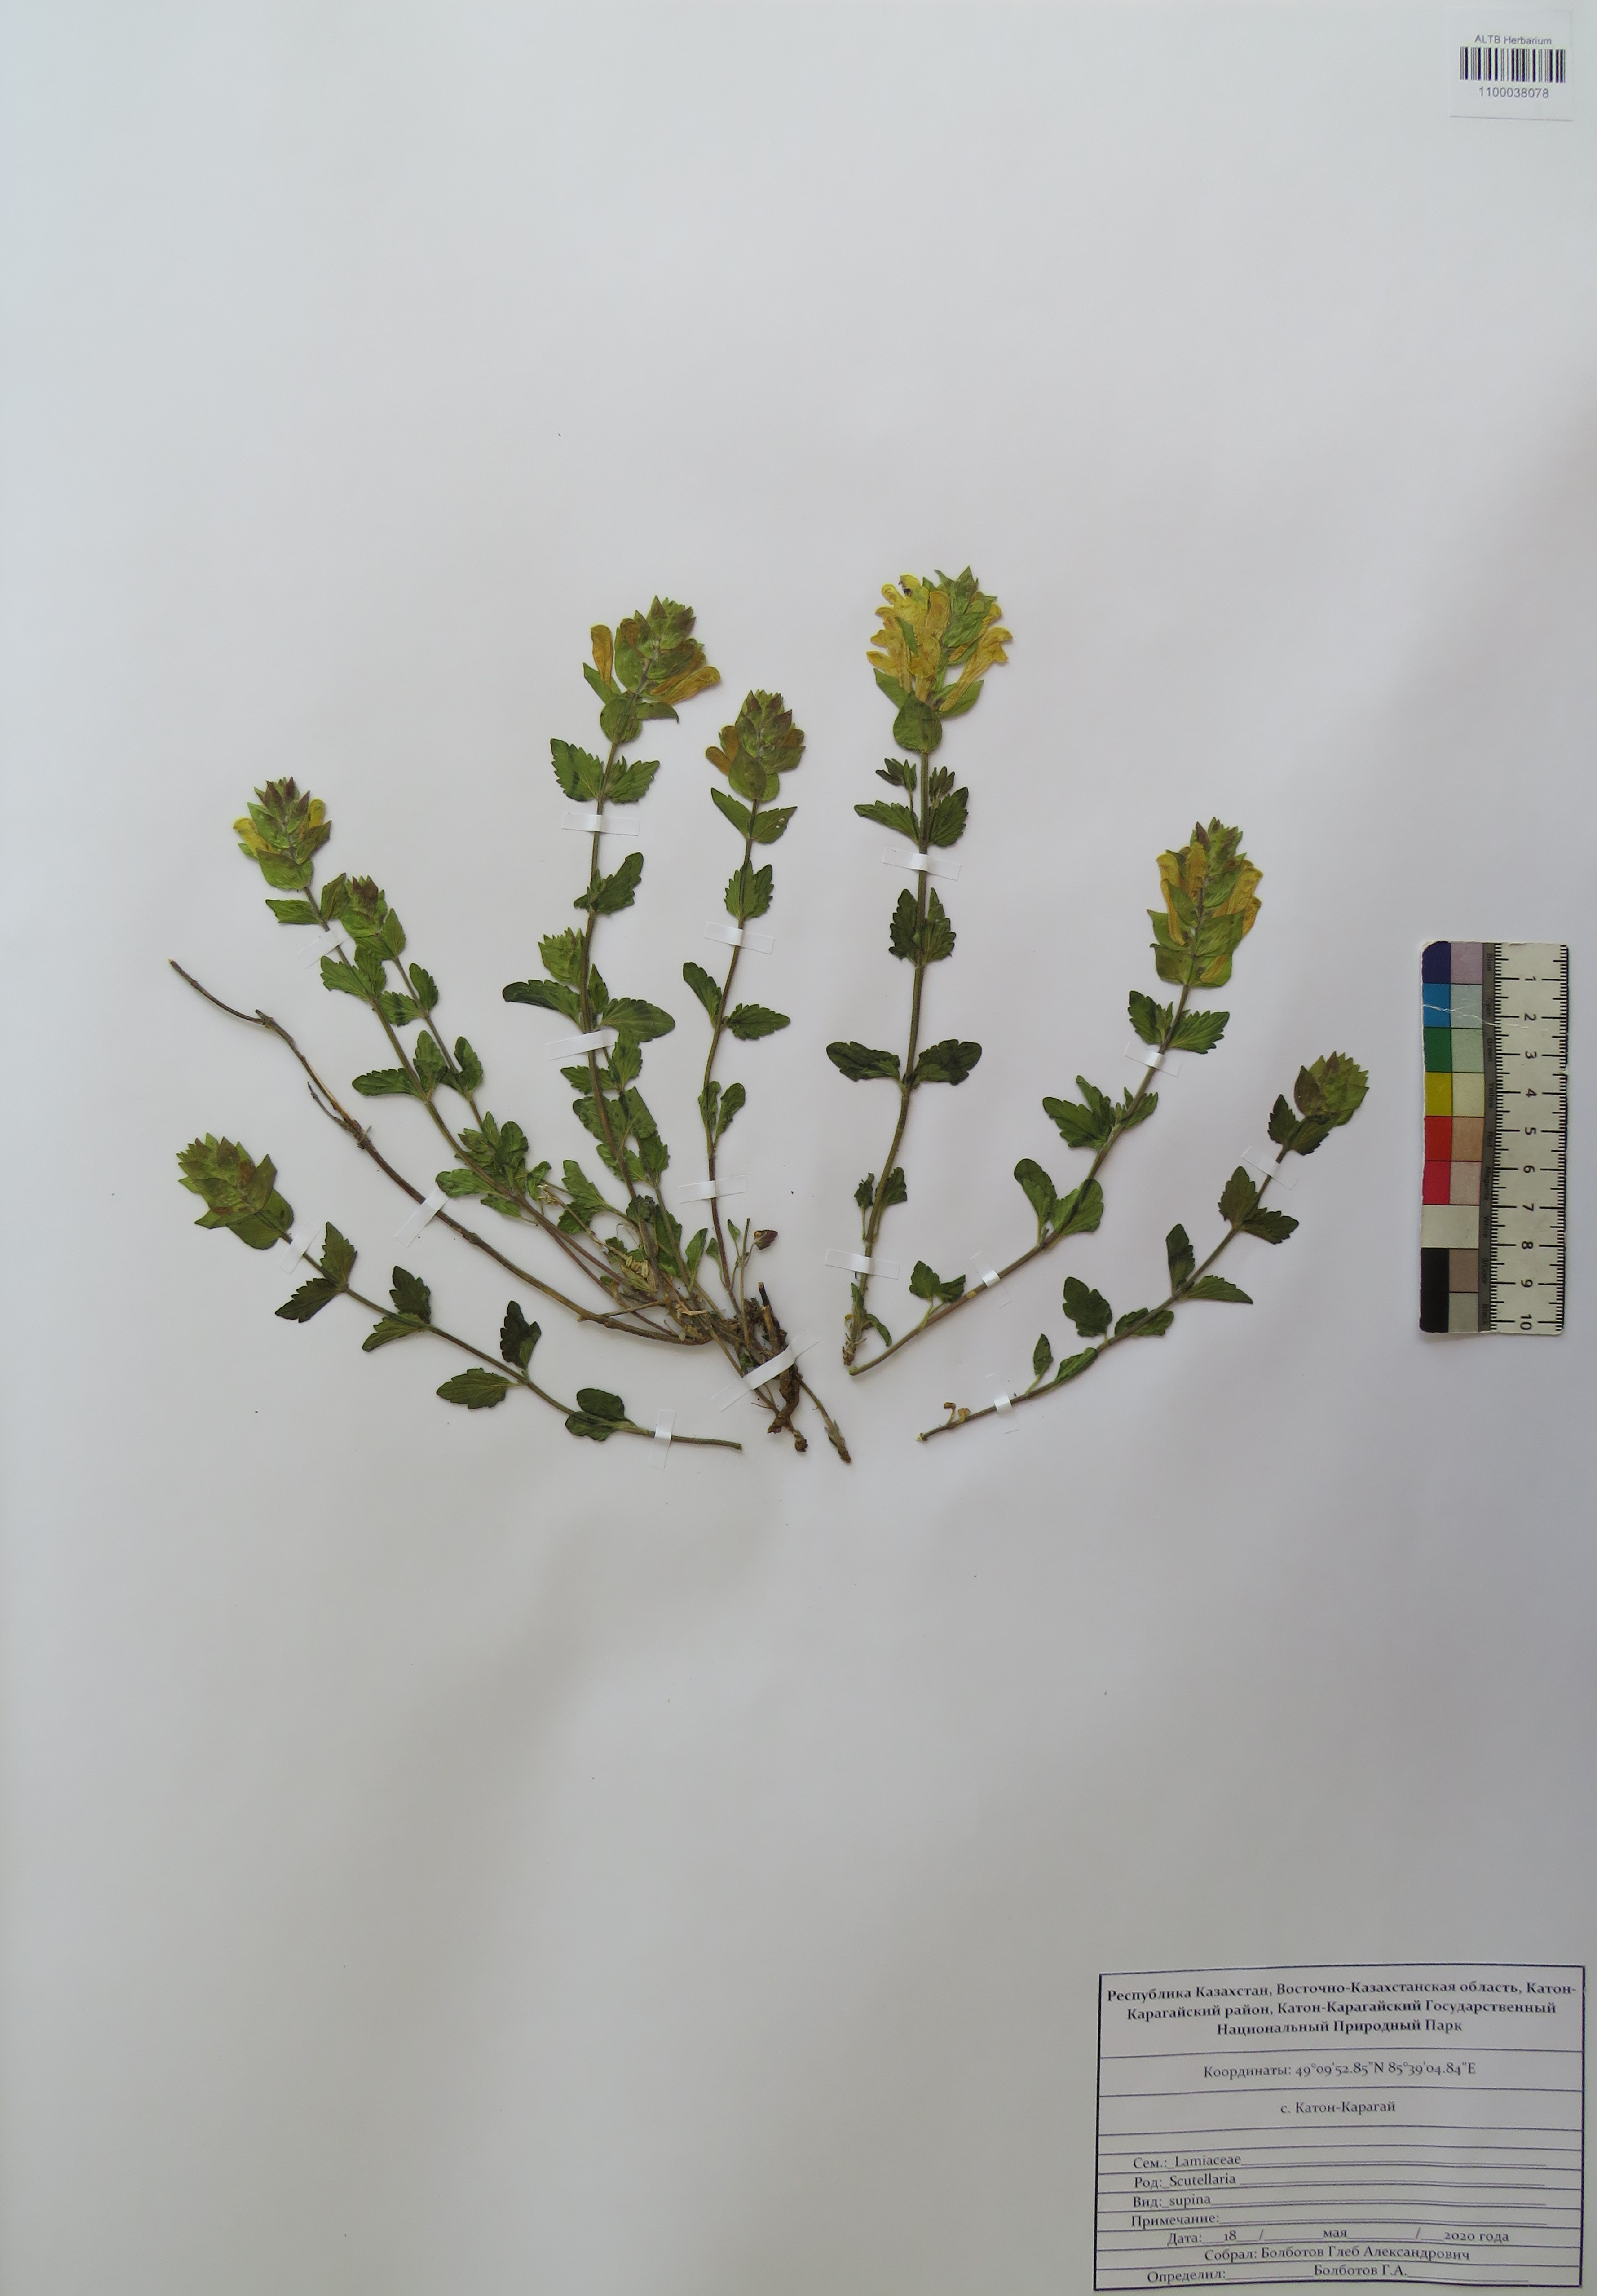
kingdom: Plantae
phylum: Tracheophyta
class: Magnoliopsida
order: Lamiales
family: Lamiaceae
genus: Scutellaria
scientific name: Scutellaria supina
